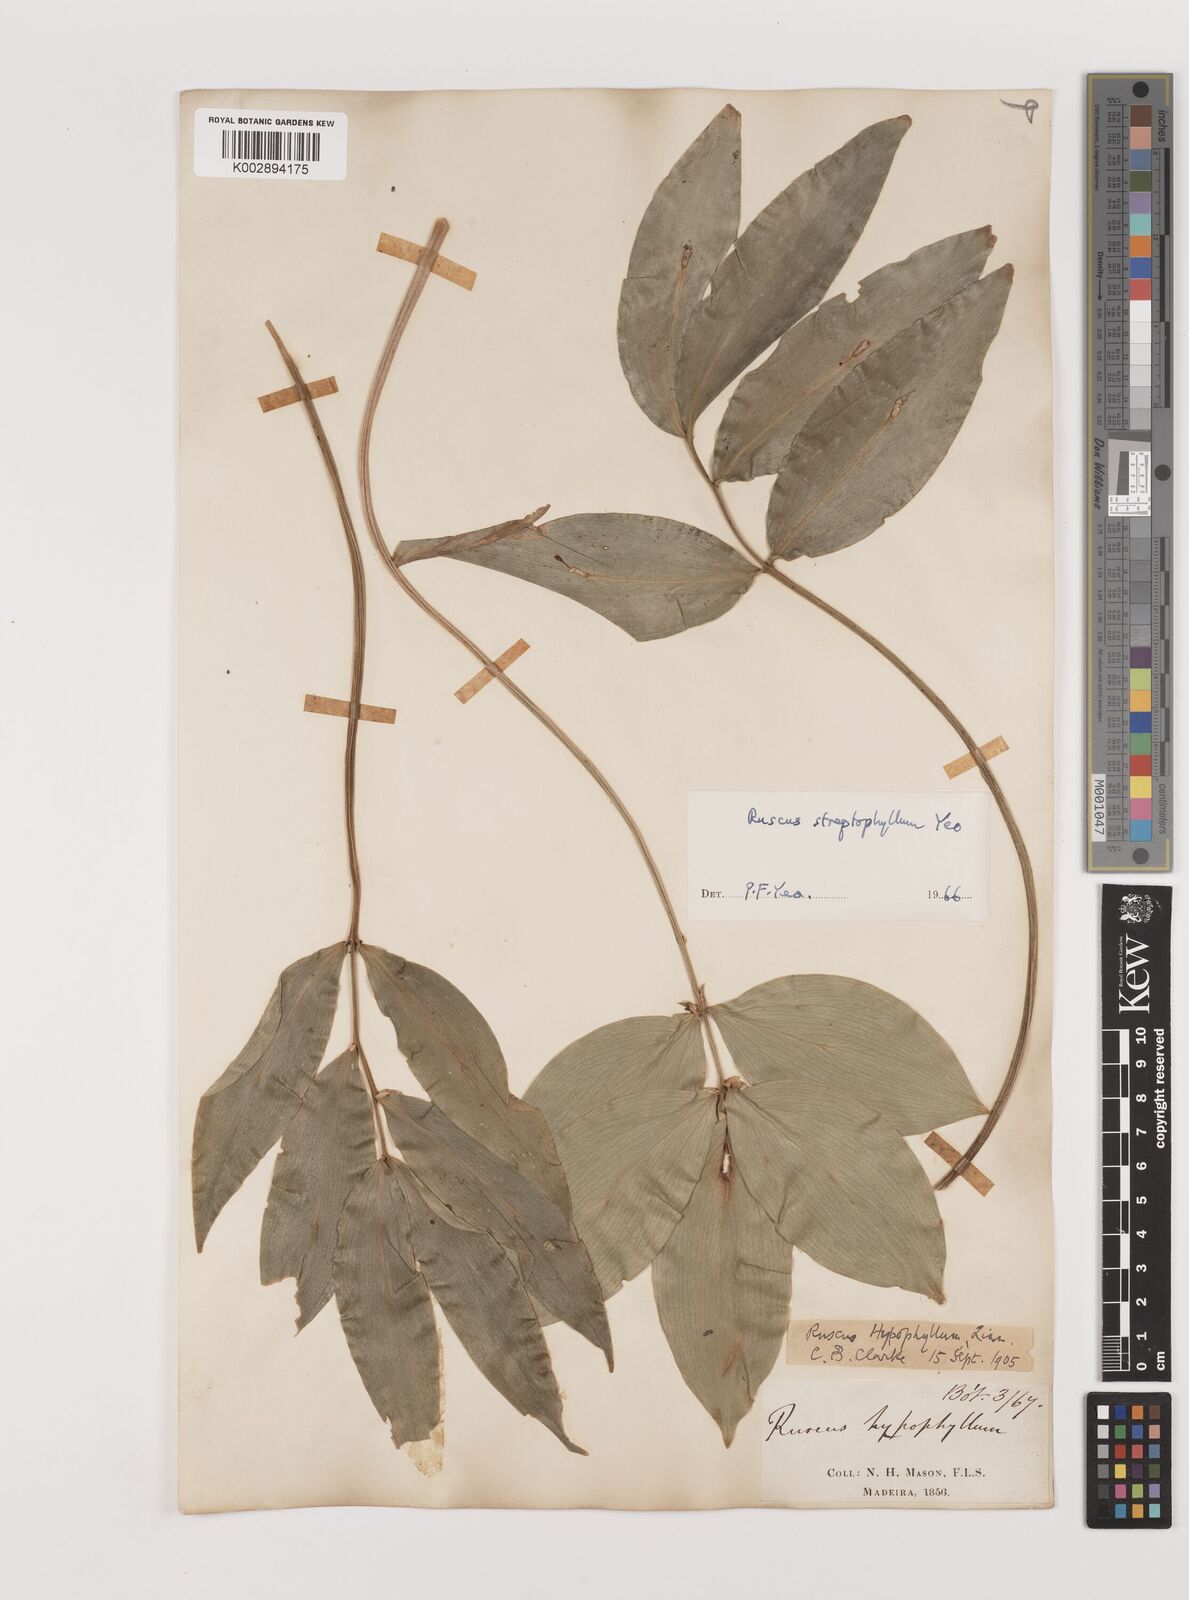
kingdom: Plantae
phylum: Tracheophyta
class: Liliopsida
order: Asparagales
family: Asparagaceae
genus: Ruscus
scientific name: Ruscus hypophyllum
